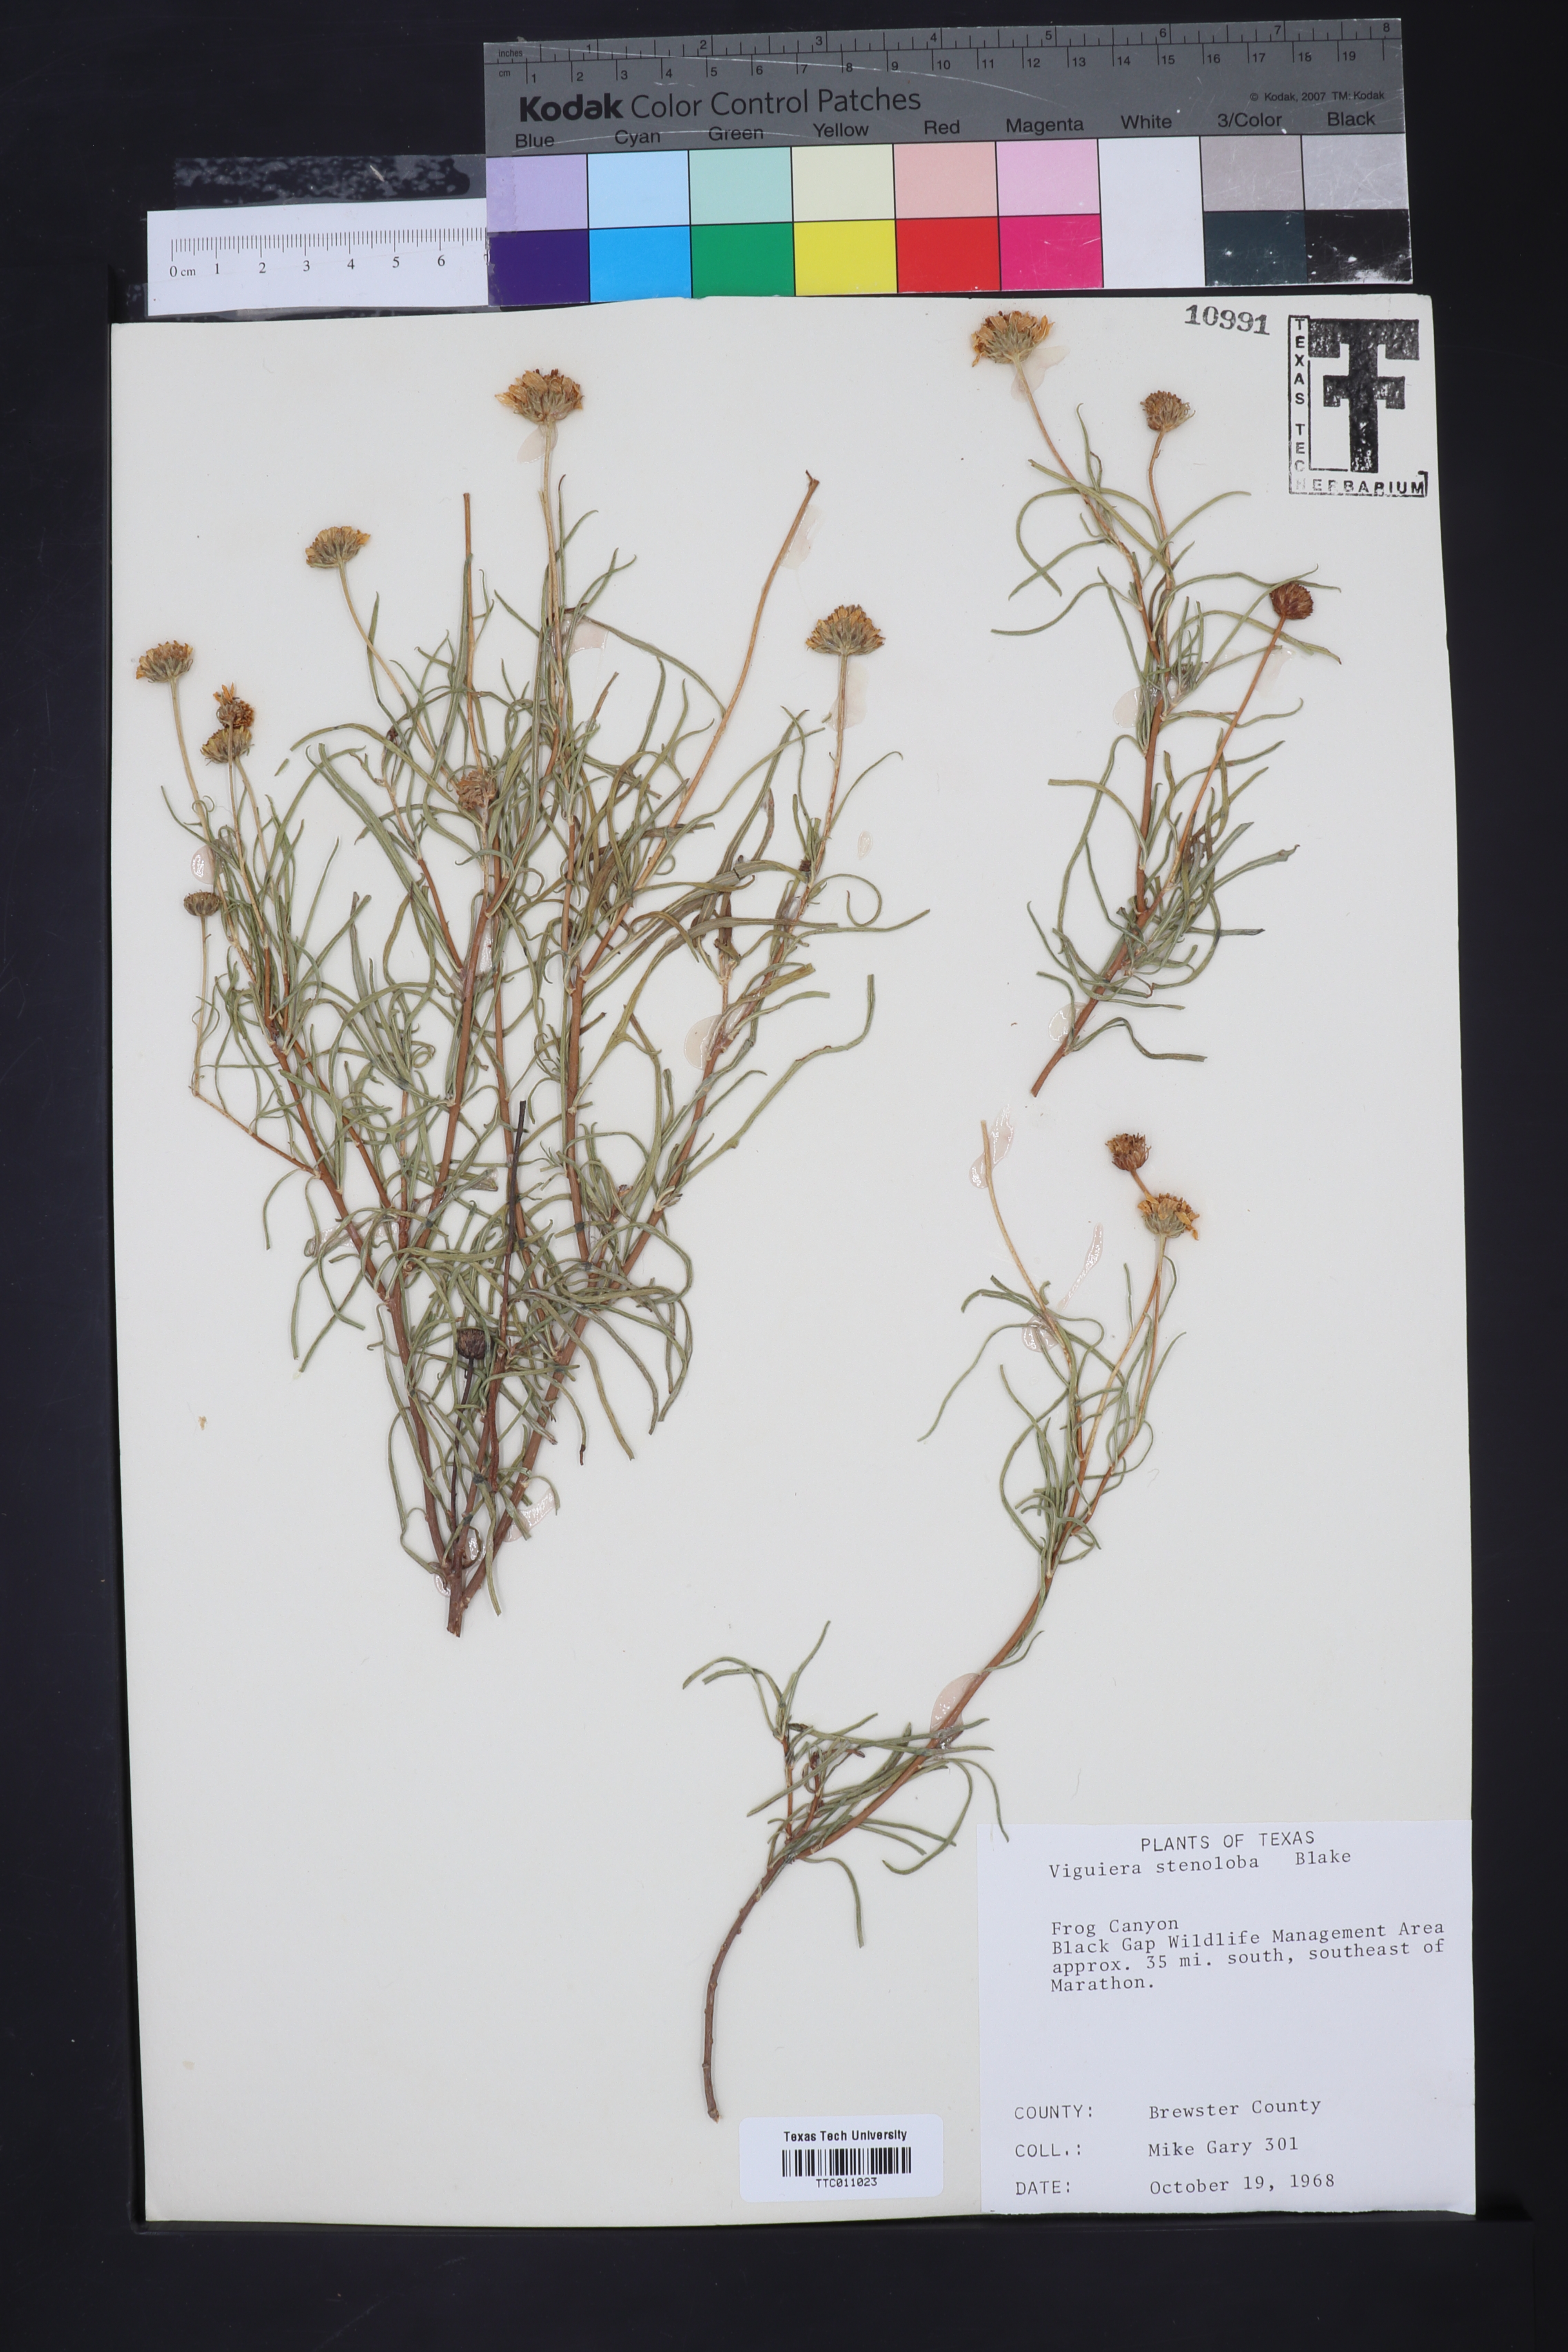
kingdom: Plantae
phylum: Tracheophyta
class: Magnoliopsida
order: Asterales
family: Asteraceae
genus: Sidneya
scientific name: Sidneya tenuifolia
